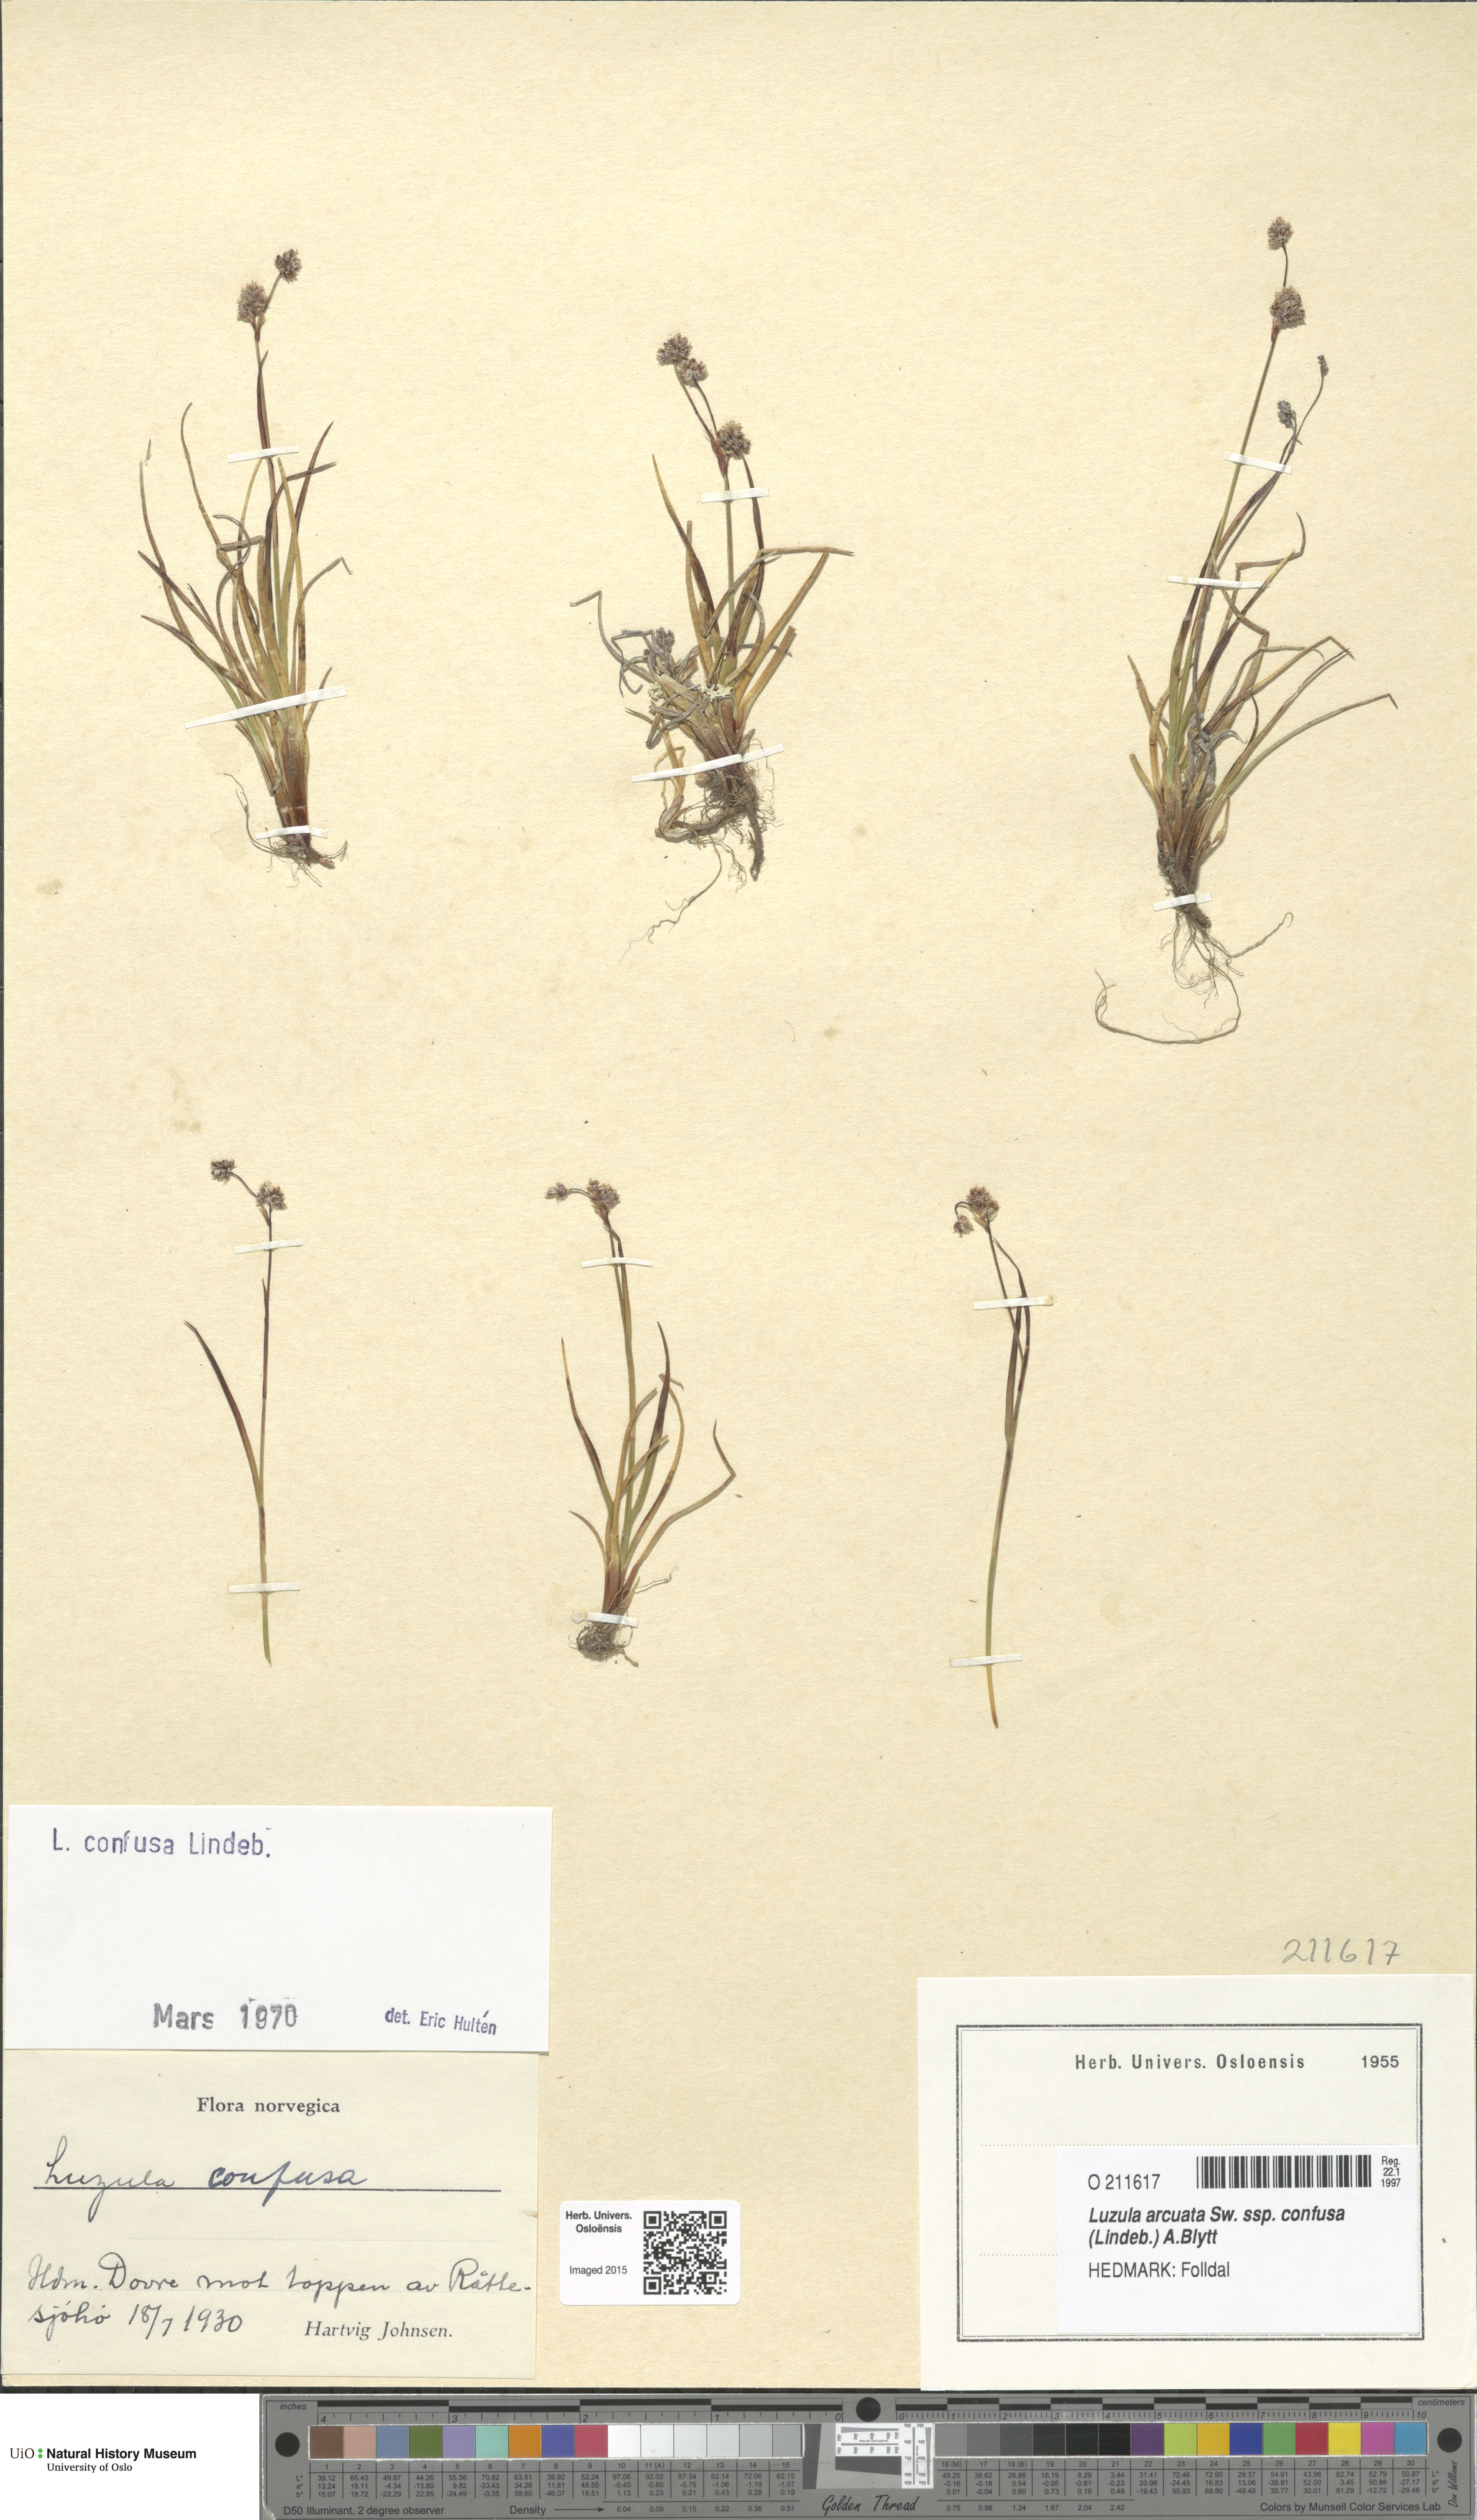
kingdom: Plantae
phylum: Tracheophyta
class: Liliopsida
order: Poales
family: Juncaceae
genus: Luzula
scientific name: Luzula confusa
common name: Northern wood rush
